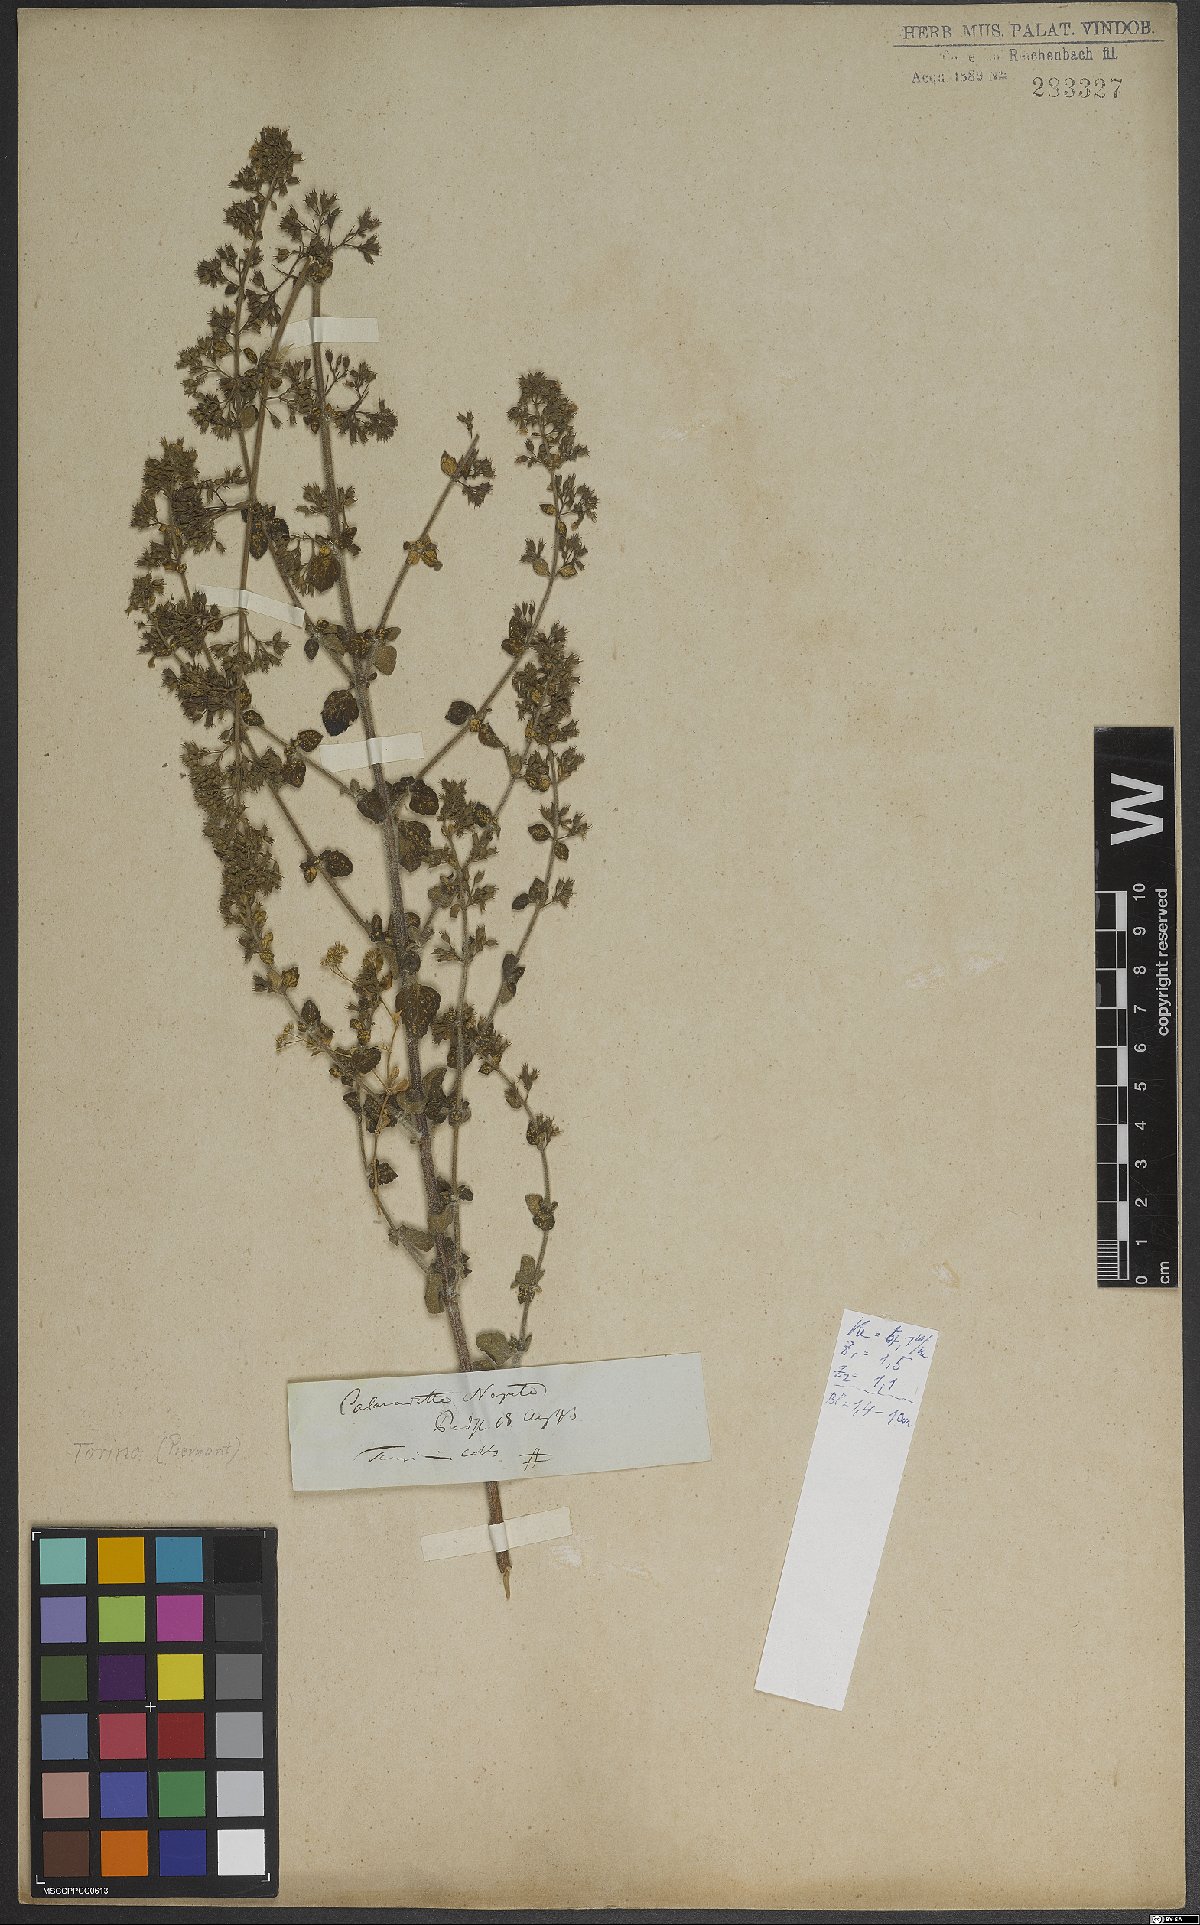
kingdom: Plantae
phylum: Tracheophyta
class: Magnoliopsida
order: Lamiales
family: Lamiaceae
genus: Clinopodium
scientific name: Clinopodium nepeta
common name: Lesser calamint
